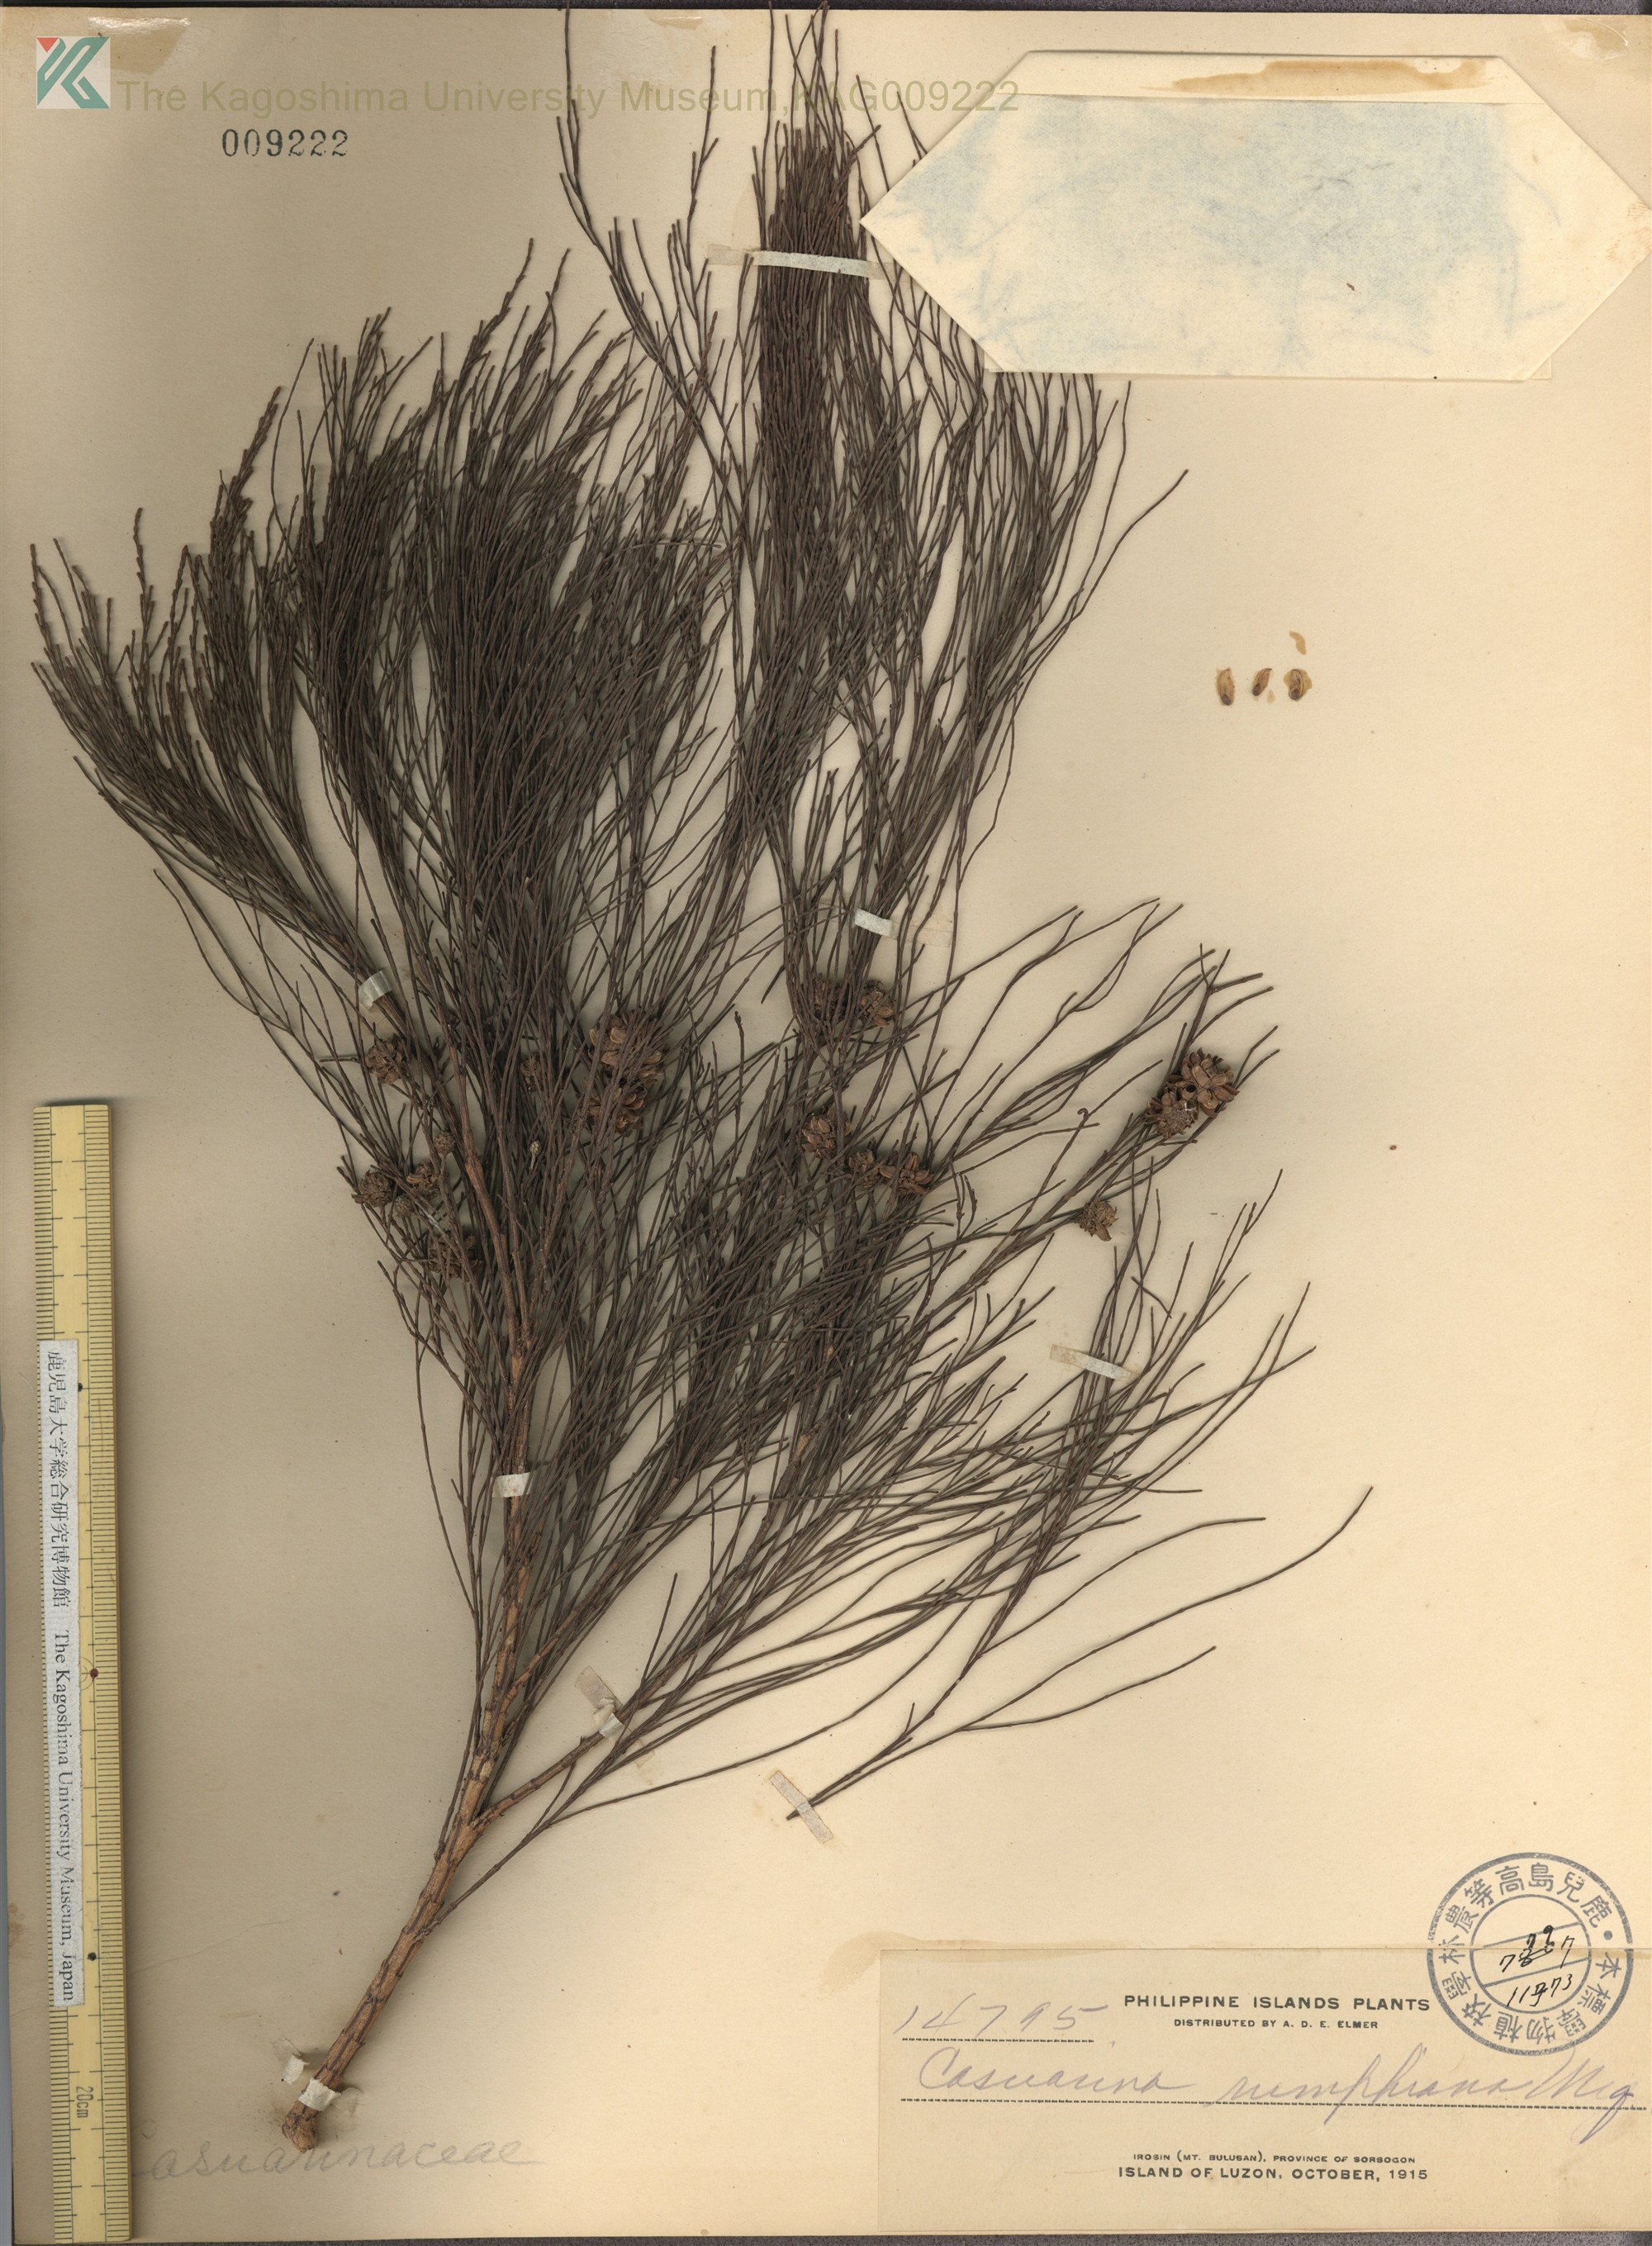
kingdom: Plantae
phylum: Tracheophyta
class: Magnoliopsida
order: Fagales
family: Casuarinaceae
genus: Casuarina
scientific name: Casuarina
